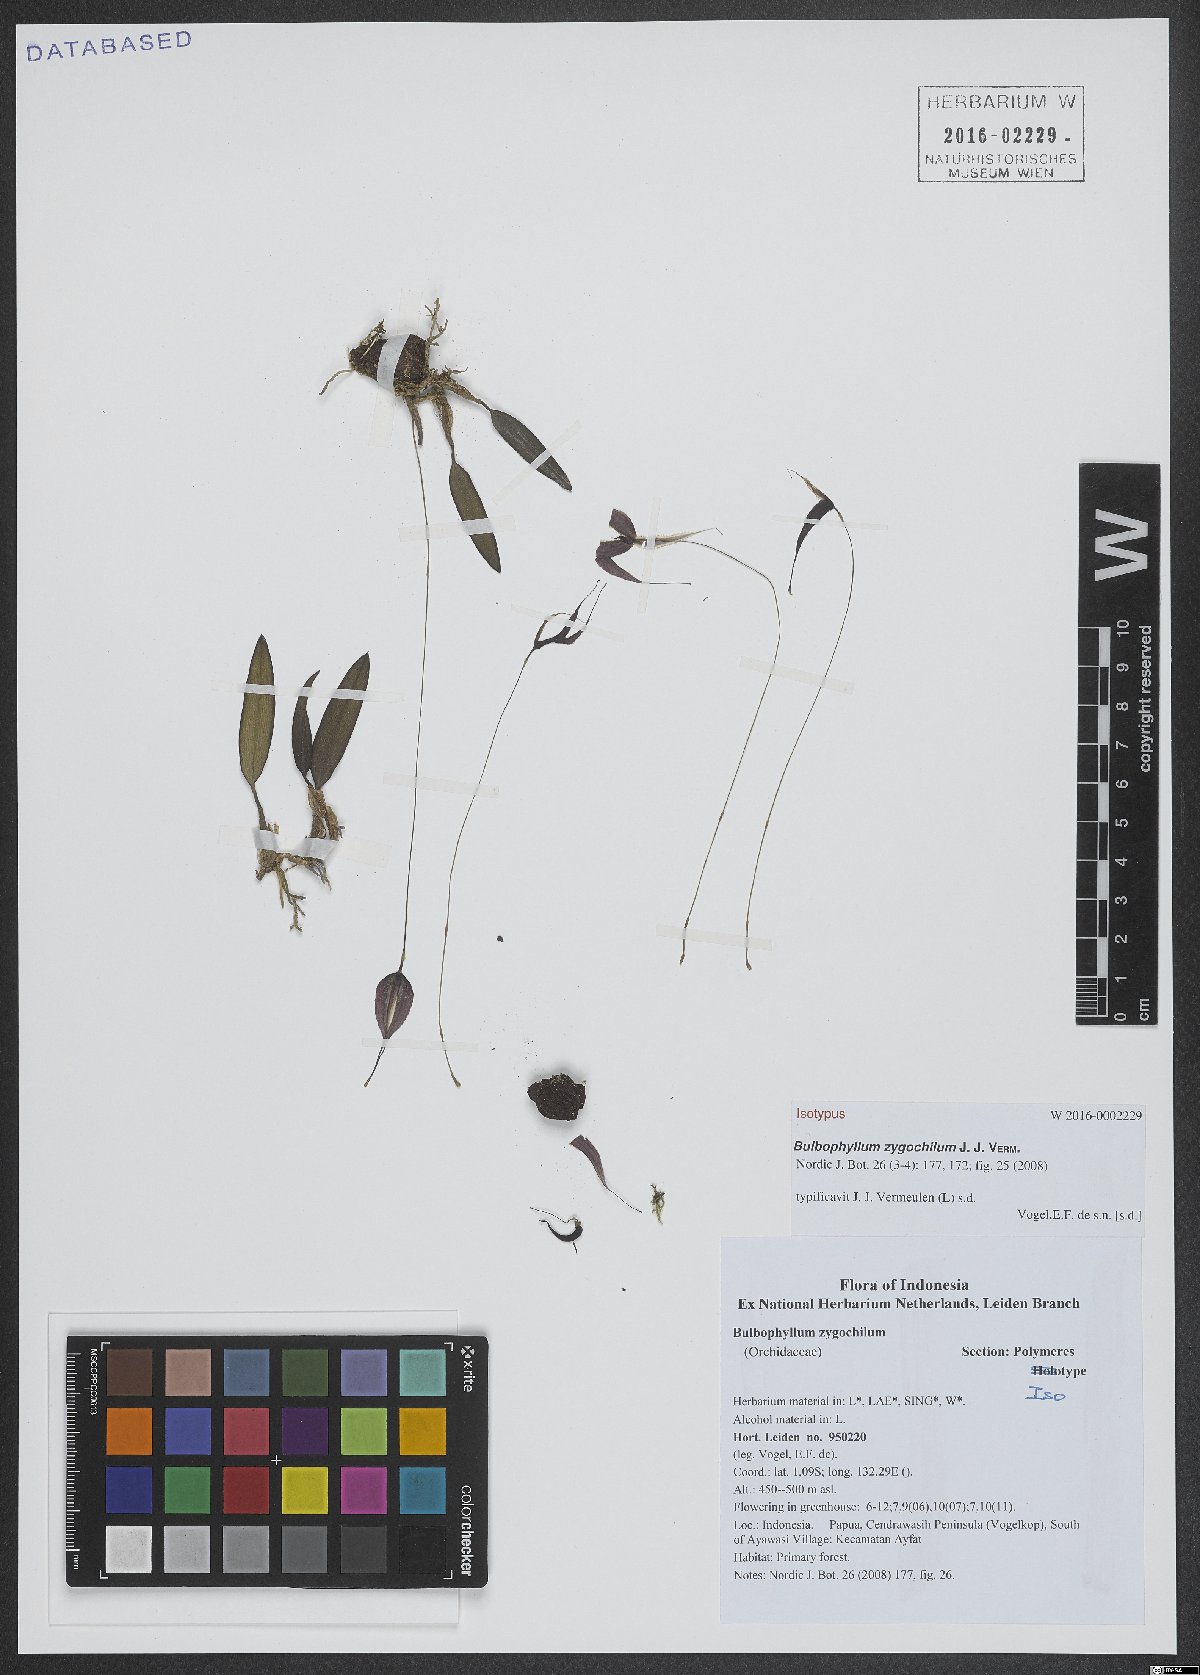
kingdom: Plantae
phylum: Tracheophyta
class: Liliopsida
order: Asparagales
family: Orchidaceae
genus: Bulbophyllum
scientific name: Bulbophyllum zygochilum
